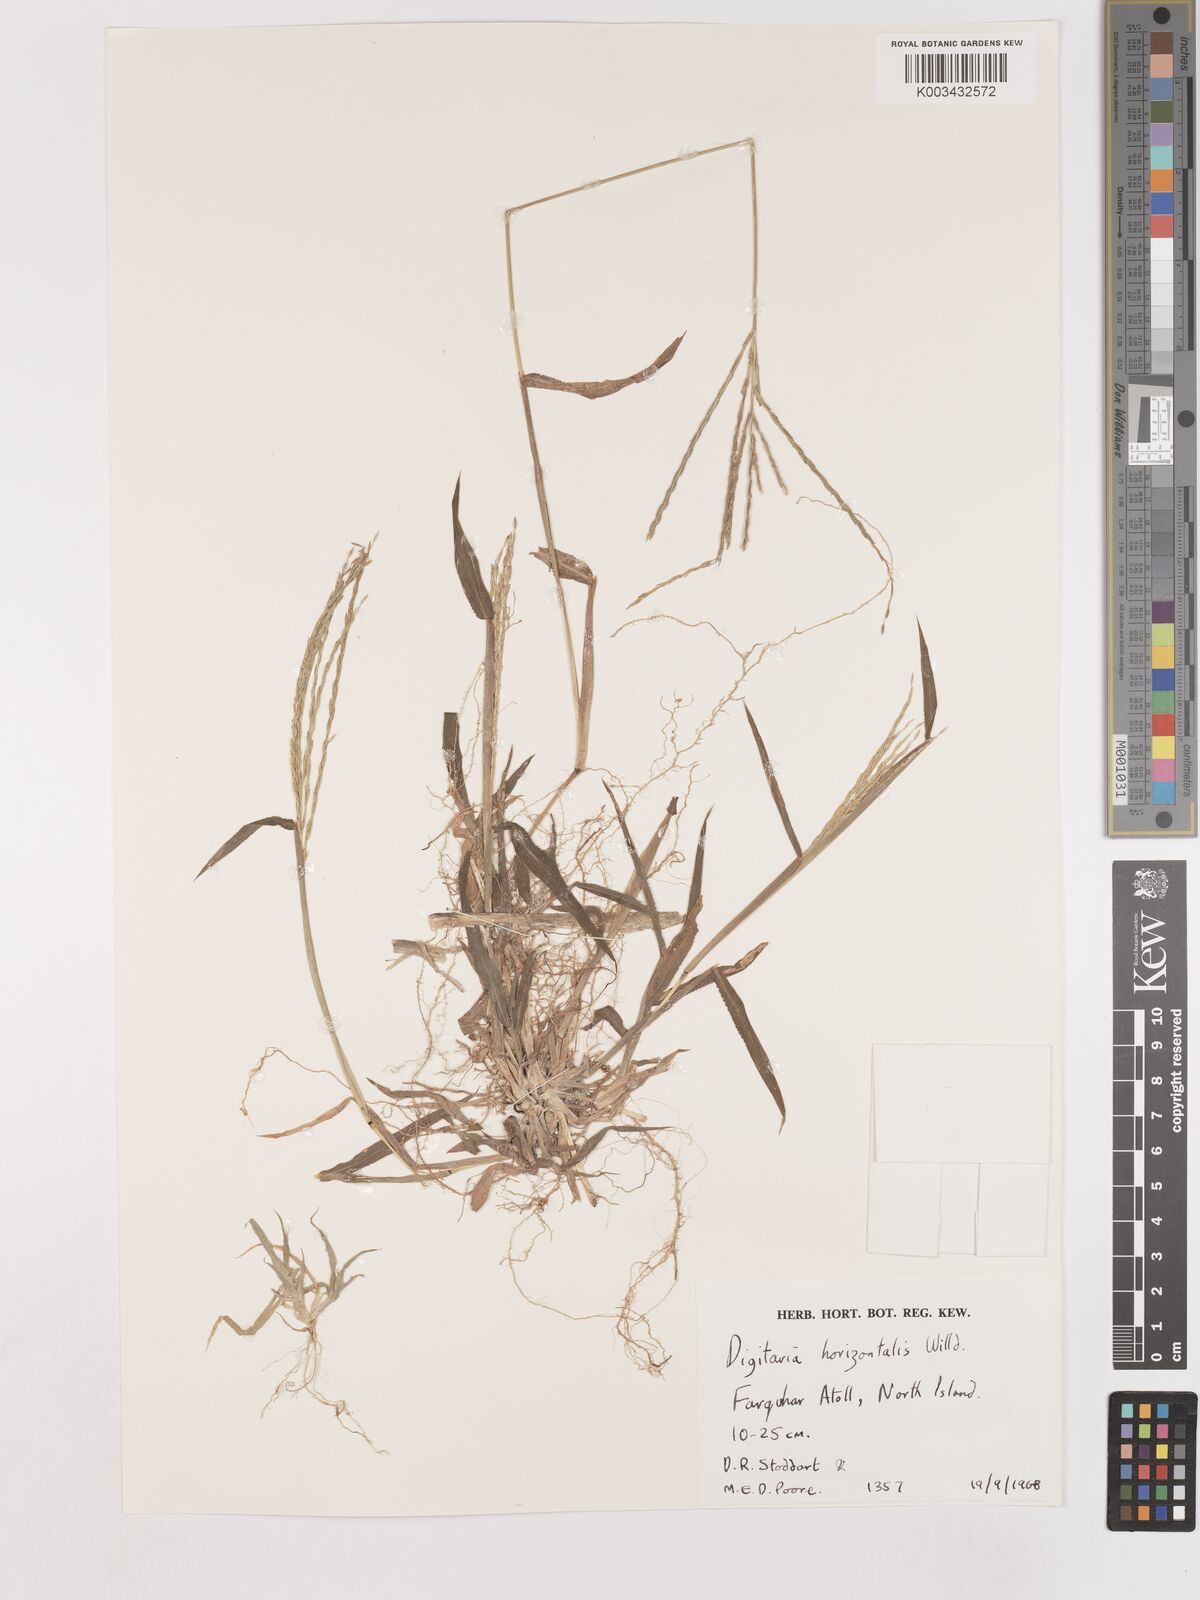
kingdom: Plantae
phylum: Tracheophyta
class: Liliopsida
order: Poales
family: Poaceae
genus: Digitaria
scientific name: Digitaria setigera
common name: East indian crabgrass
